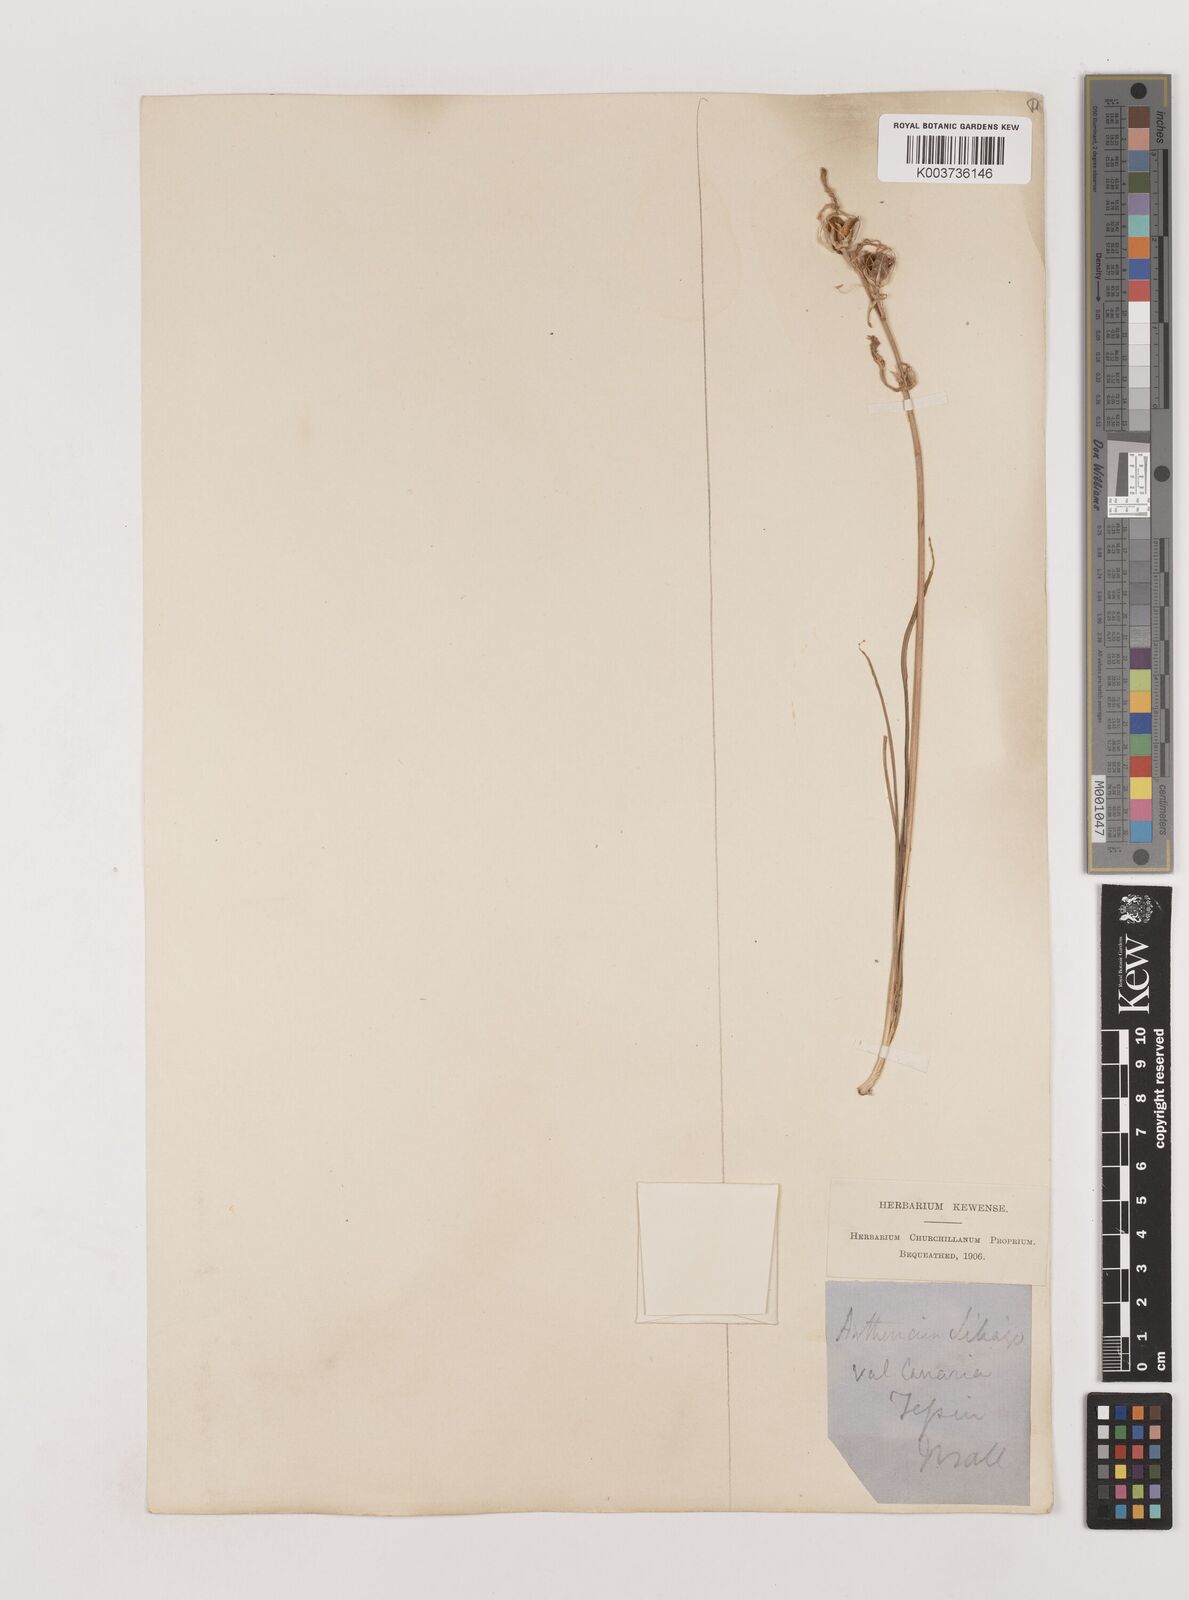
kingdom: Plantae
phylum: Tracheophyta
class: Liliopsida
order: Asparagales
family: Asparagaceae
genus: Anthericum
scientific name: Anthericum liliago
